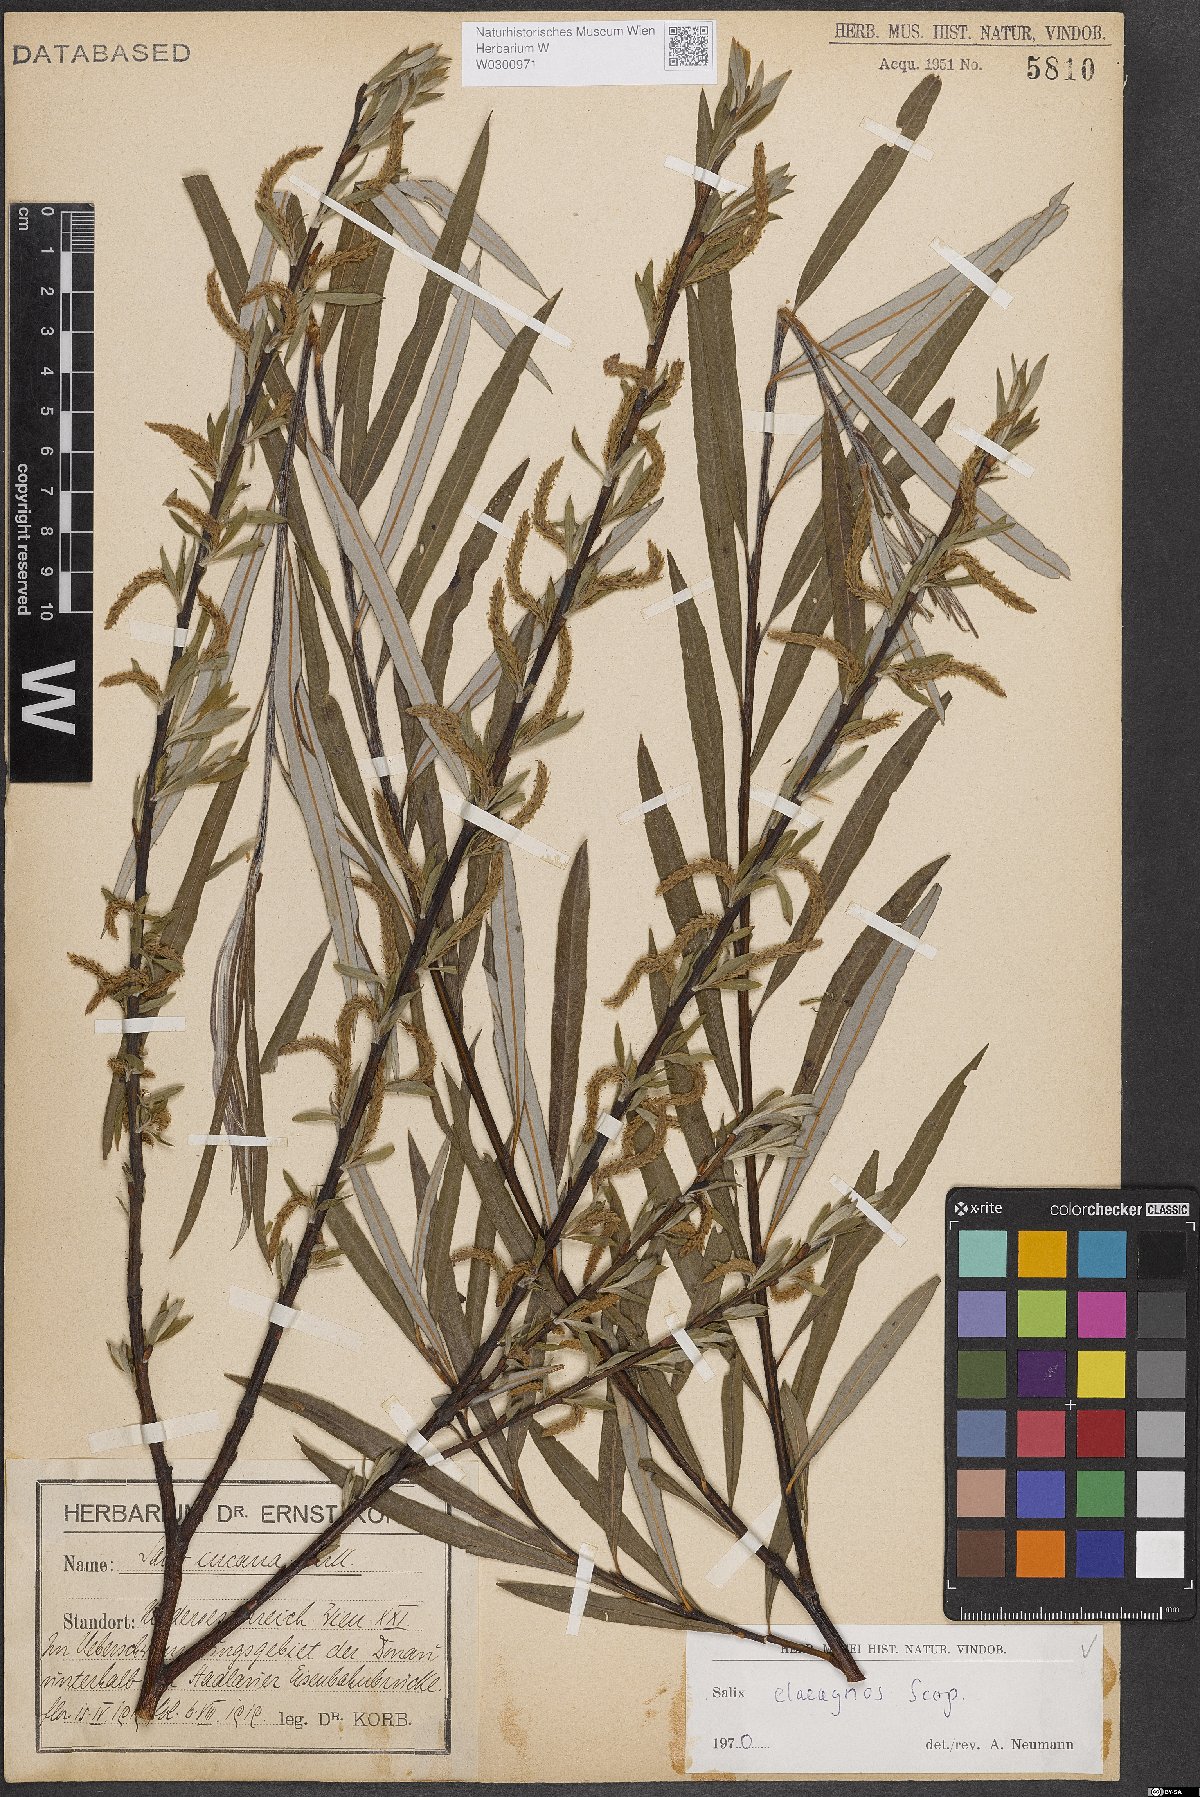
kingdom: Plantae
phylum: Tracheophyta
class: Magnoliopsida
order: Malpighiales
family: Salicaceae
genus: Salix
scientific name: Salix eleagnos
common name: Elaeagnus willow
